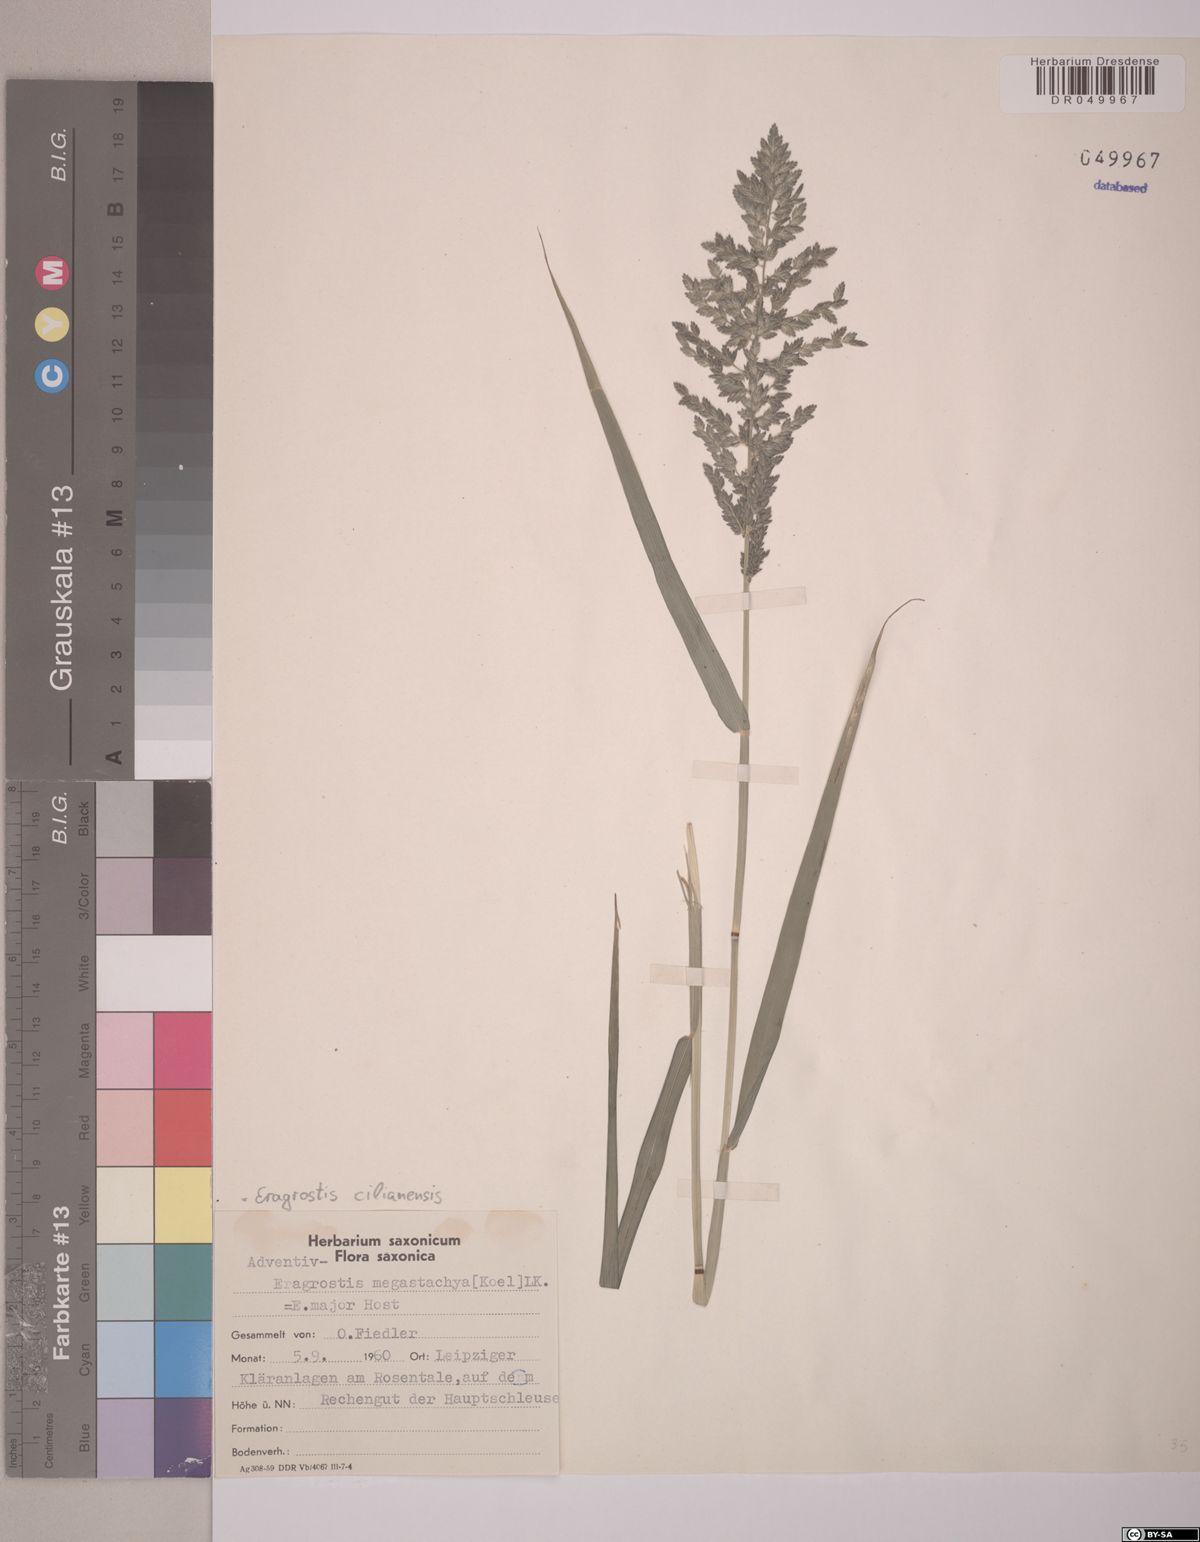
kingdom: Plantae
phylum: Tracheophyta
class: Liliopsida
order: Poales
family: Poaceae
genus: Eragrostis
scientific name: Eragrostis cilianensis
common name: Stinkgrass
